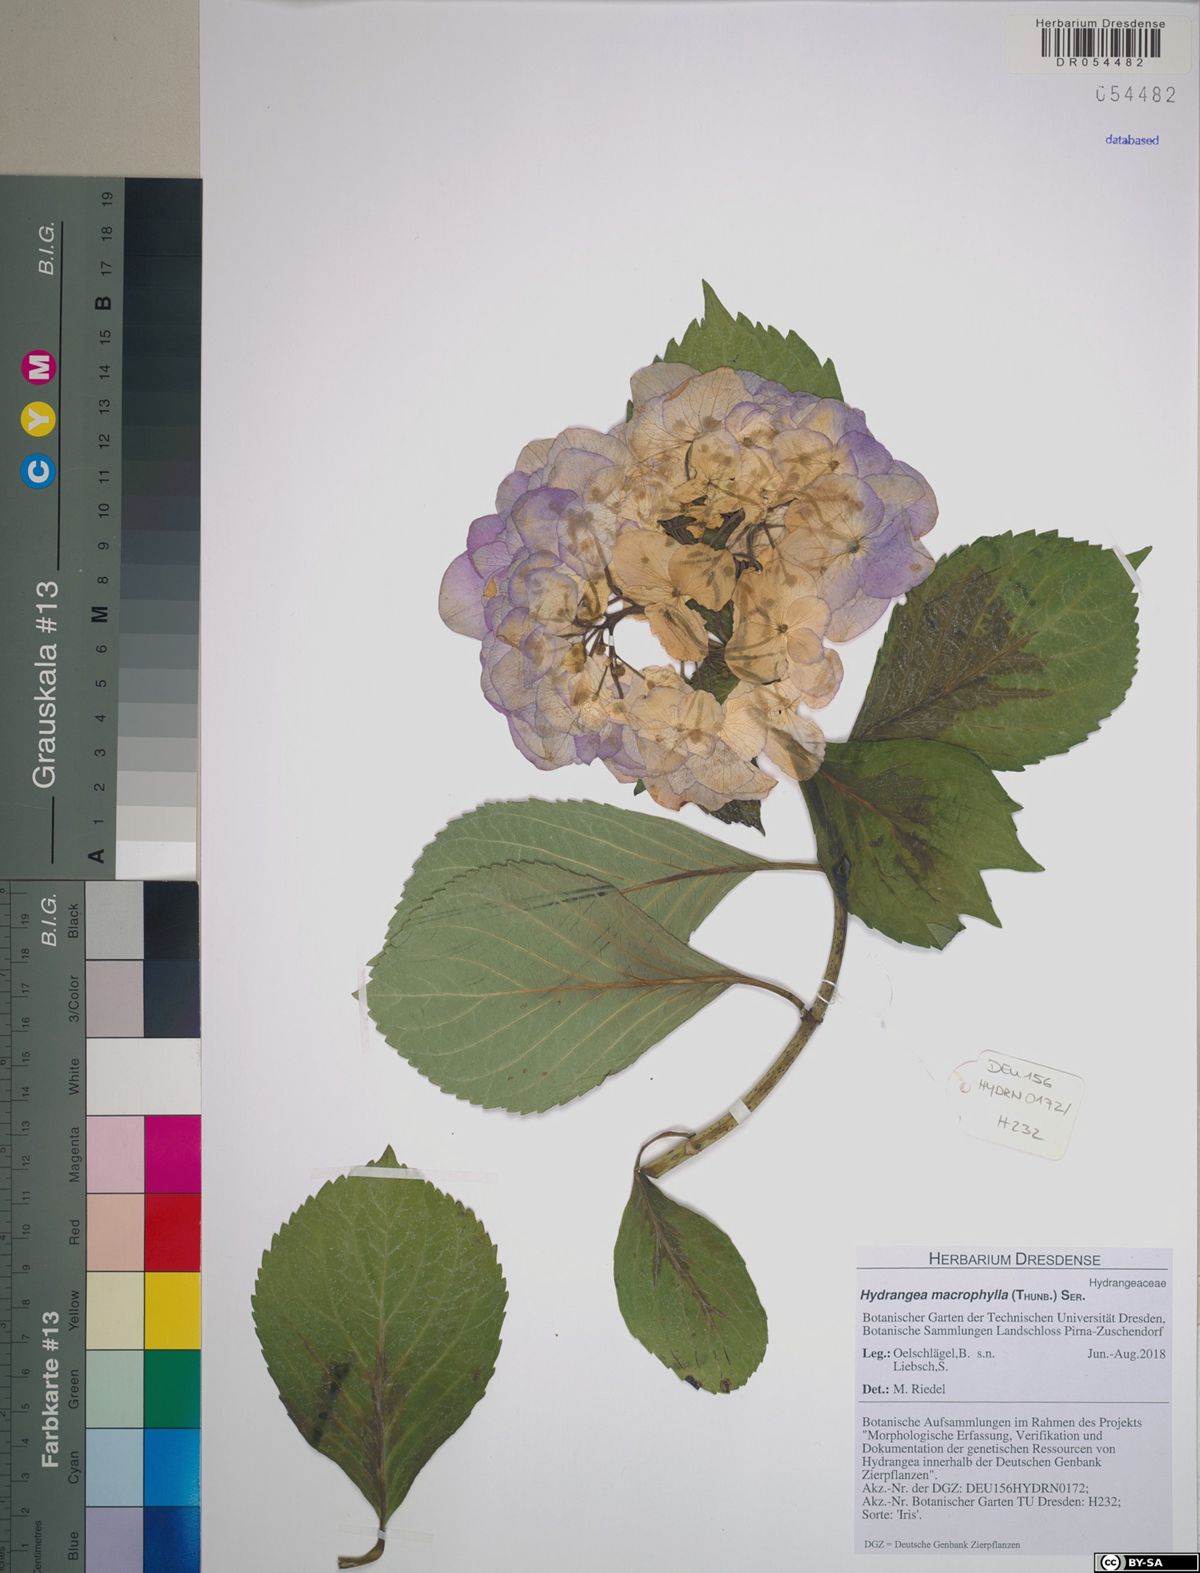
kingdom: Plantae
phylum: Tracheophyta
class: Magnoliopsida
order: Cornales
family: Hydrangeaceae
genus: Hydrangea
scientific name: Hydrangea macrophylla
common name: Hydrangea
